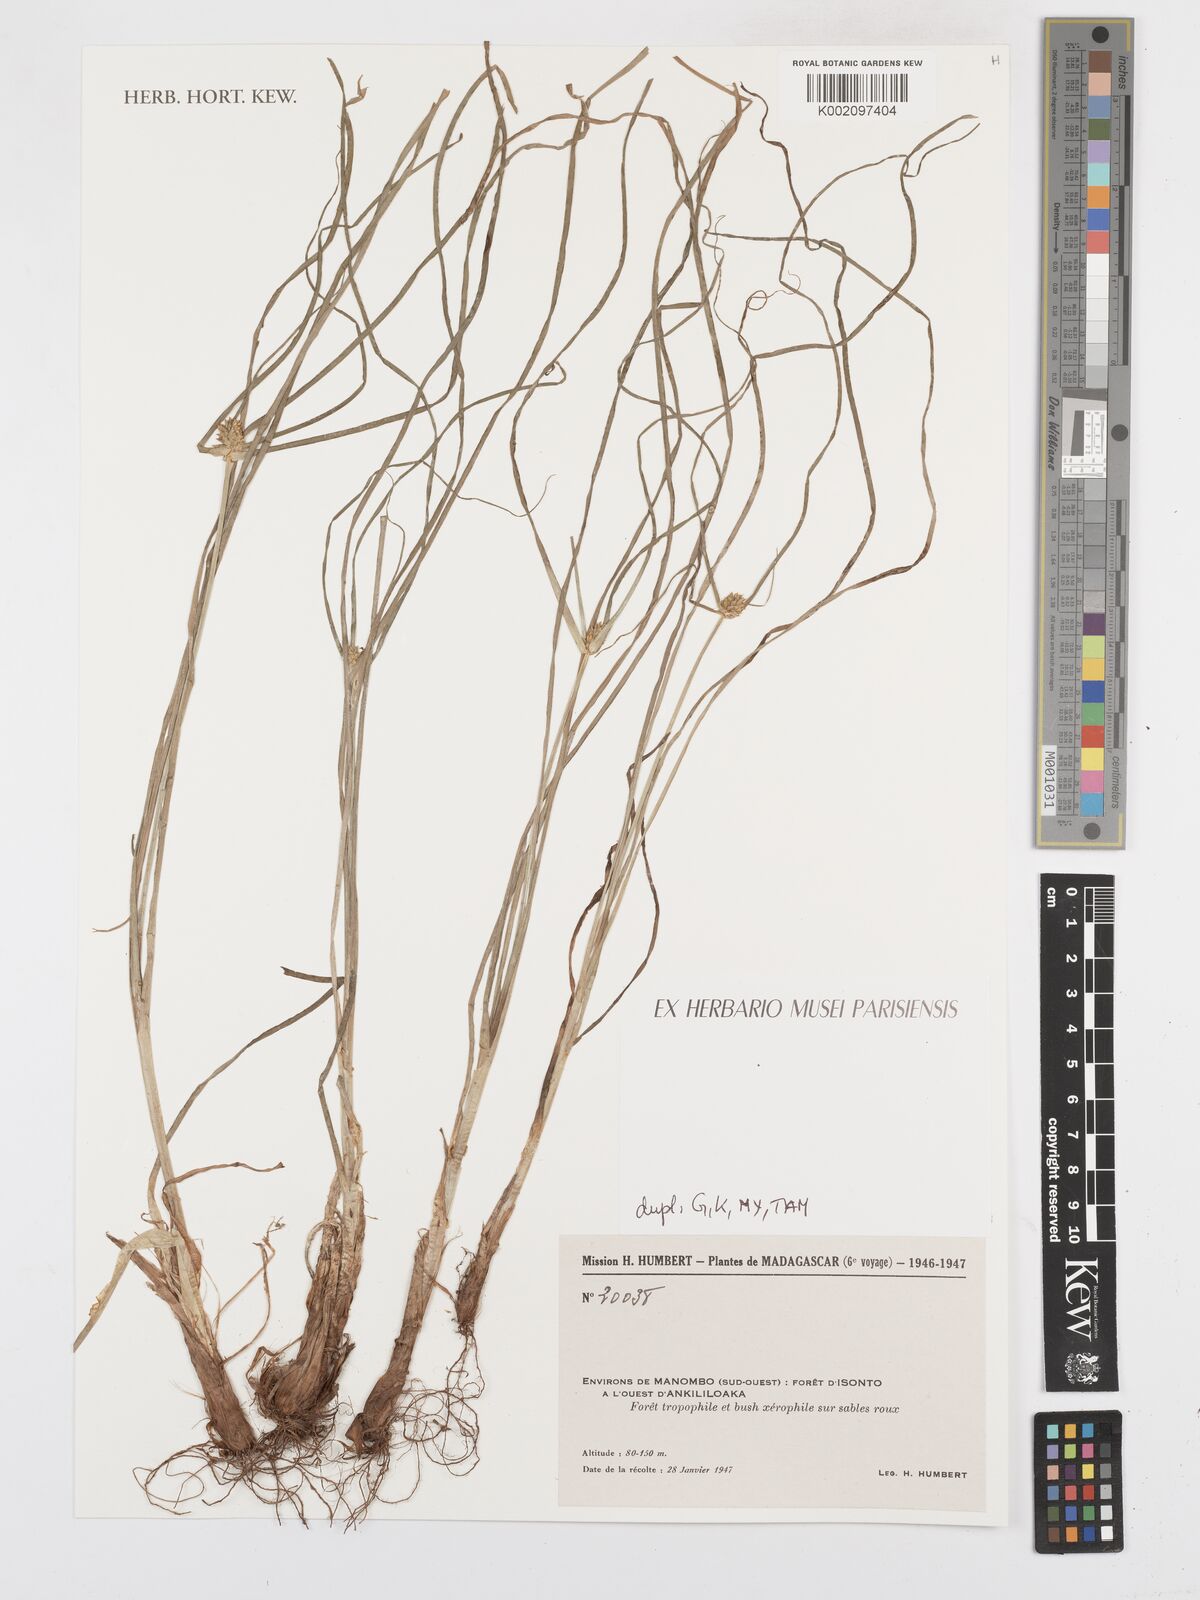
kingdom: Plantae
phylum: Tracheophyta
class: Liliopsida
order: Poales
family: Cyperaceae
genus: Carex
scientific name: Carex
